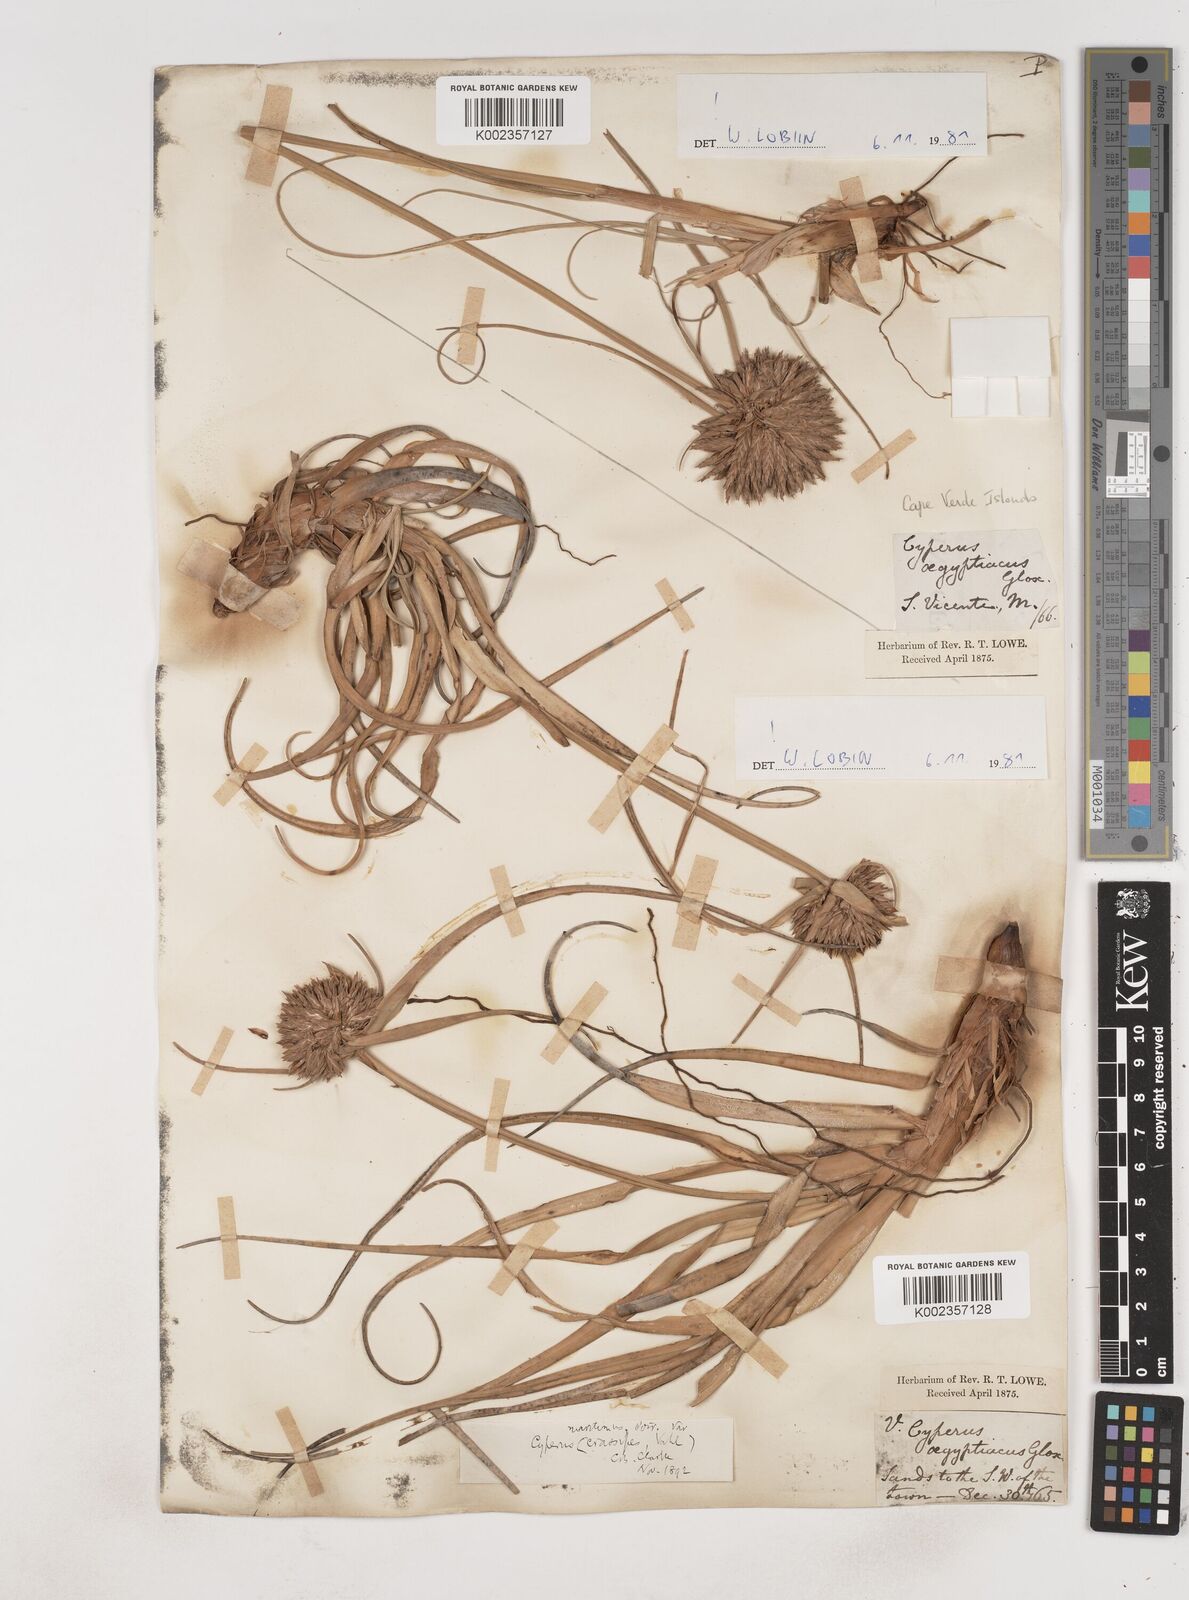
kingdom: Plantae
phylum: Tracheophyta
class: Liliopsida
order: Poales
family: Cyperaceae
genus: Cyperus
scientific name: Cyperus crassipes
